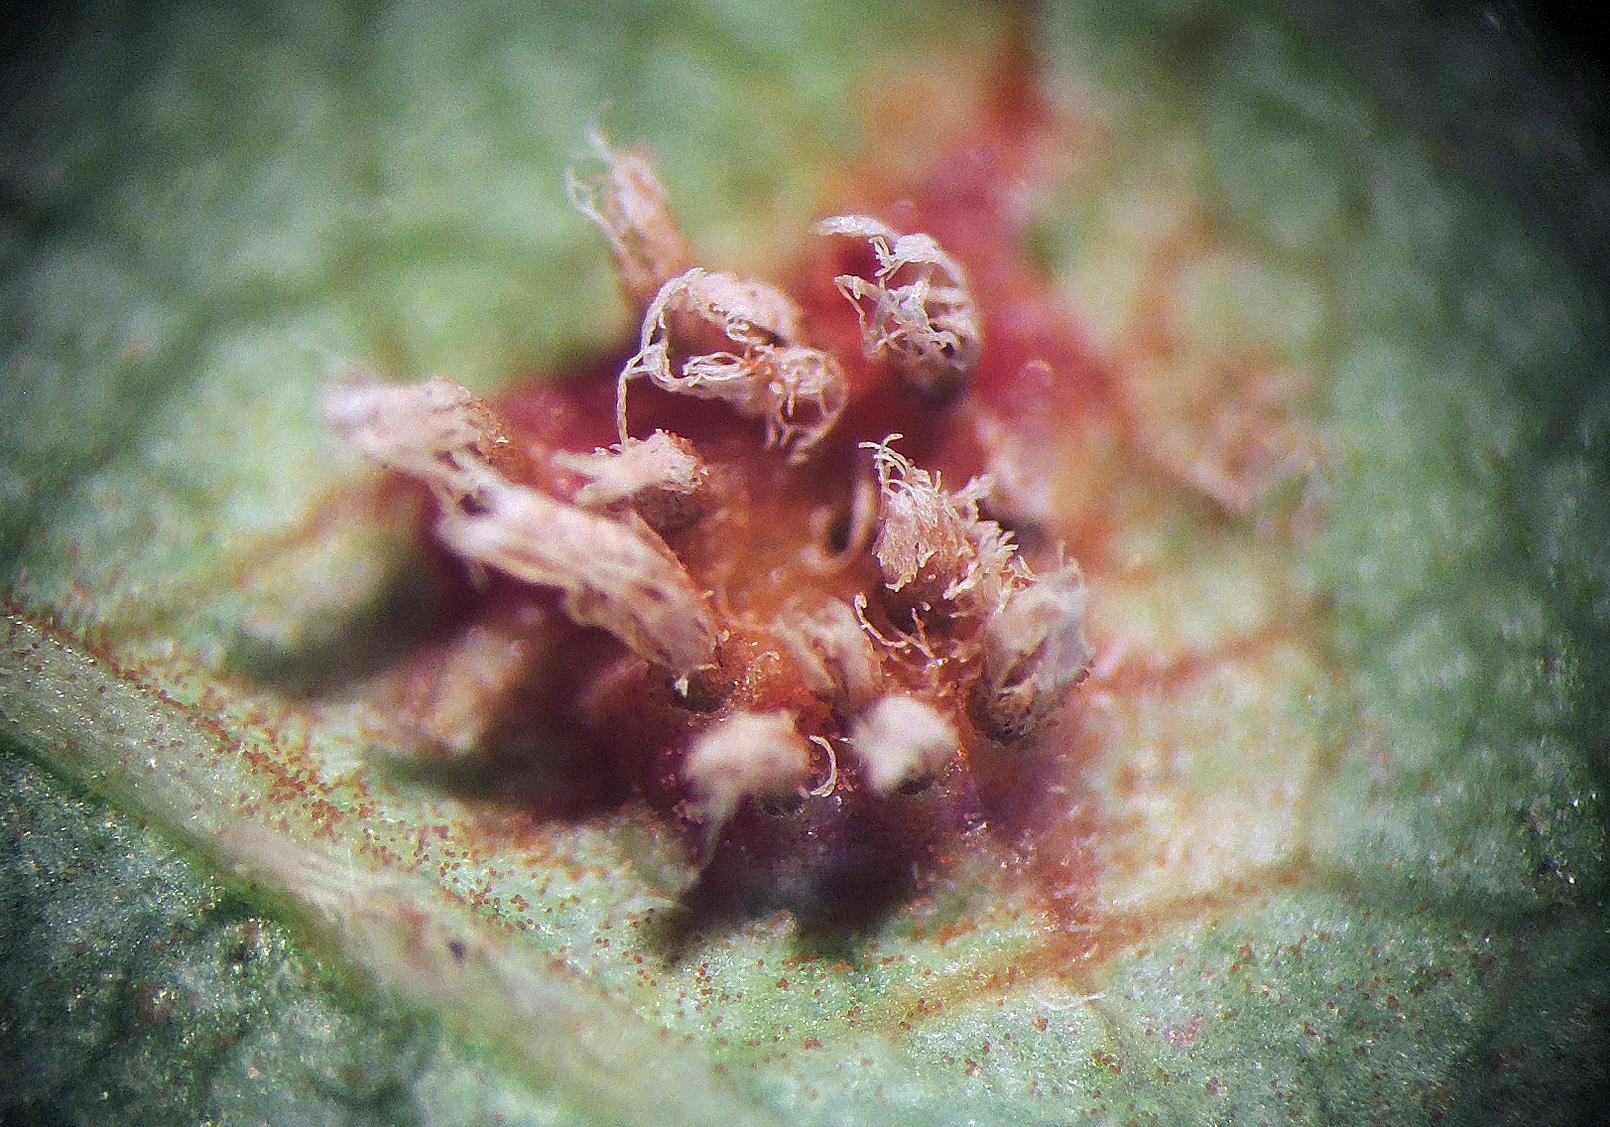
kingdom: Fungi
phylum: Basidiomycota
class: Pucciniomycetes
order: Pucciniales
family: Gymnosporangiaceae
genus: Gymnosporangium
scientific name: Gymnosporangium confusum
